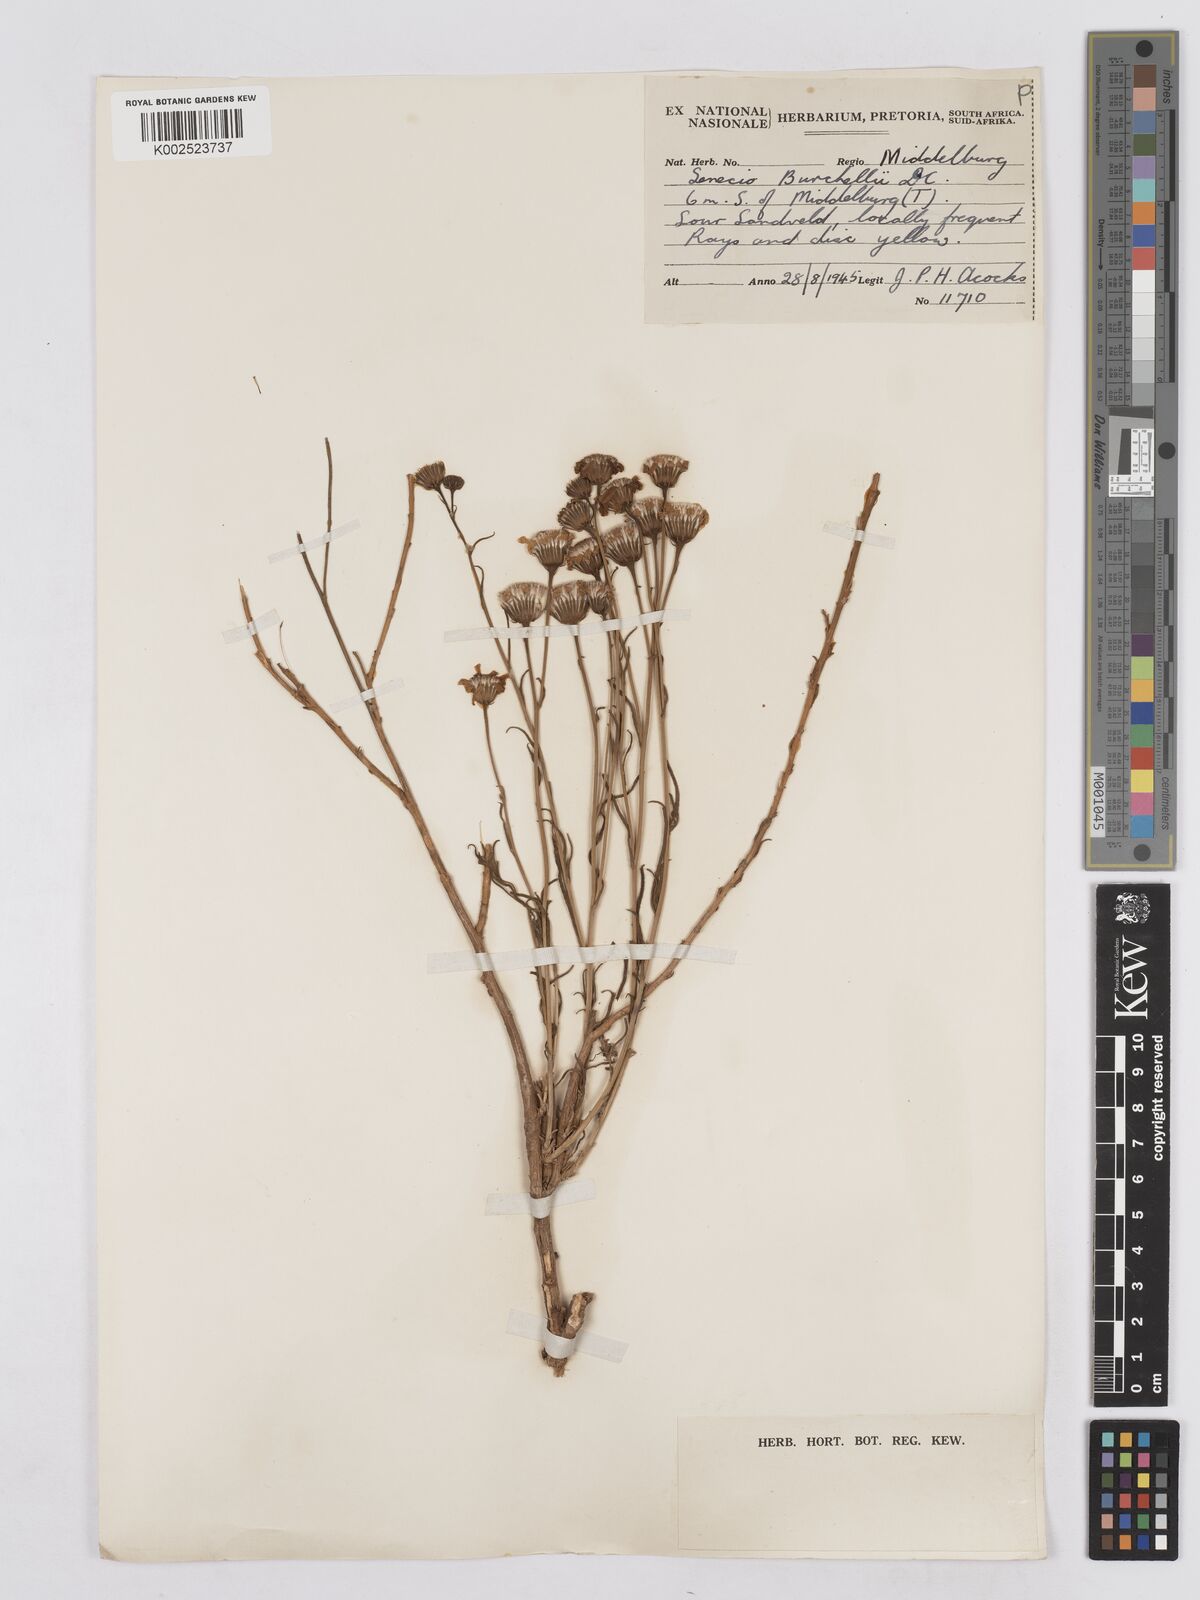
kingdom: Plantae
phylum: Tracheophyta
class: Magnoliopsida
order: Asterales
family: Asteraceae
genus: Senecio
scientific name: Senecio burchellii
